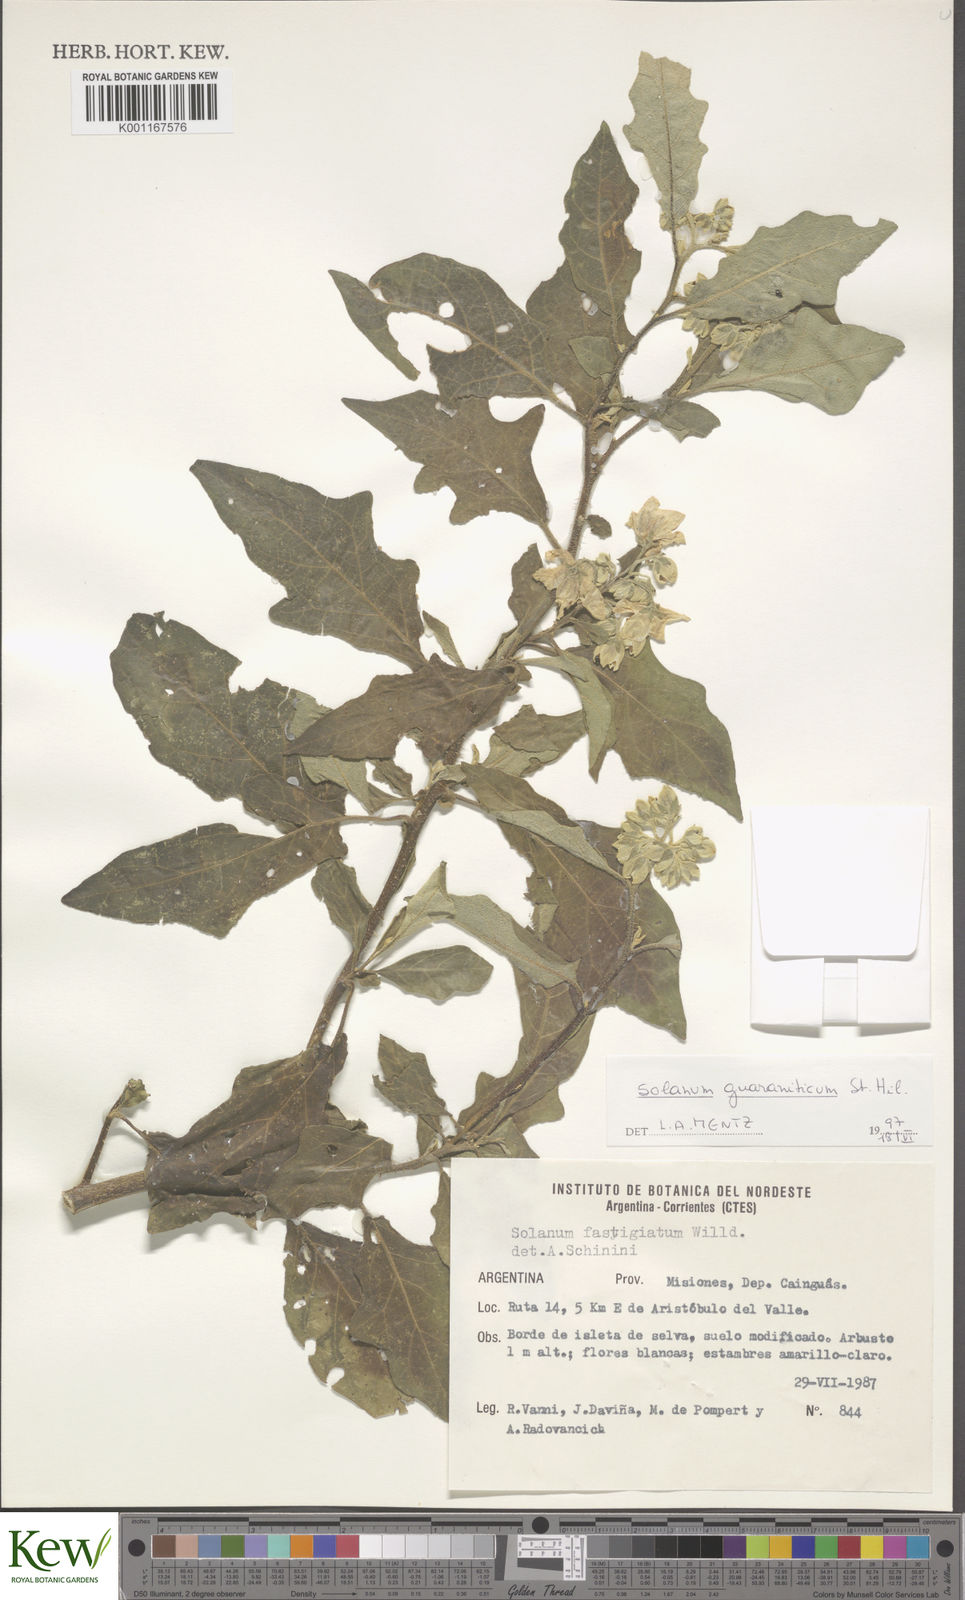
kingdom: Plantae
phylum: Tracheophyta
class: Magnoliopsida
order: Solanales
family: Solanaceae
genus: Solanum
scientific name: Solanum guaraniticum
